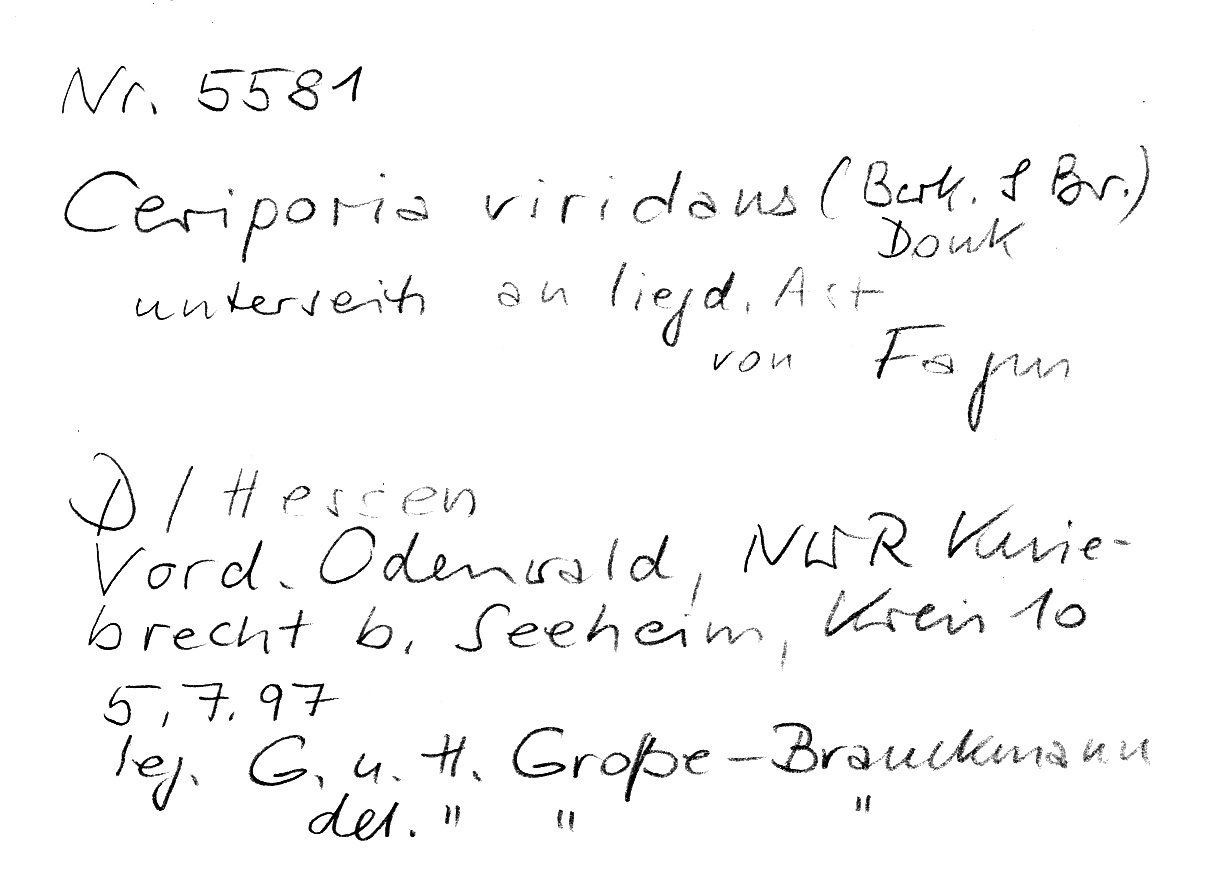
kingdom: Plantae
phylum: Tracheophyta
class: Magnoliopsida
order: Fagales
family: Fagaceae
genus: Fagus
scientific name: Fagus sylvatica
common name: Beech
